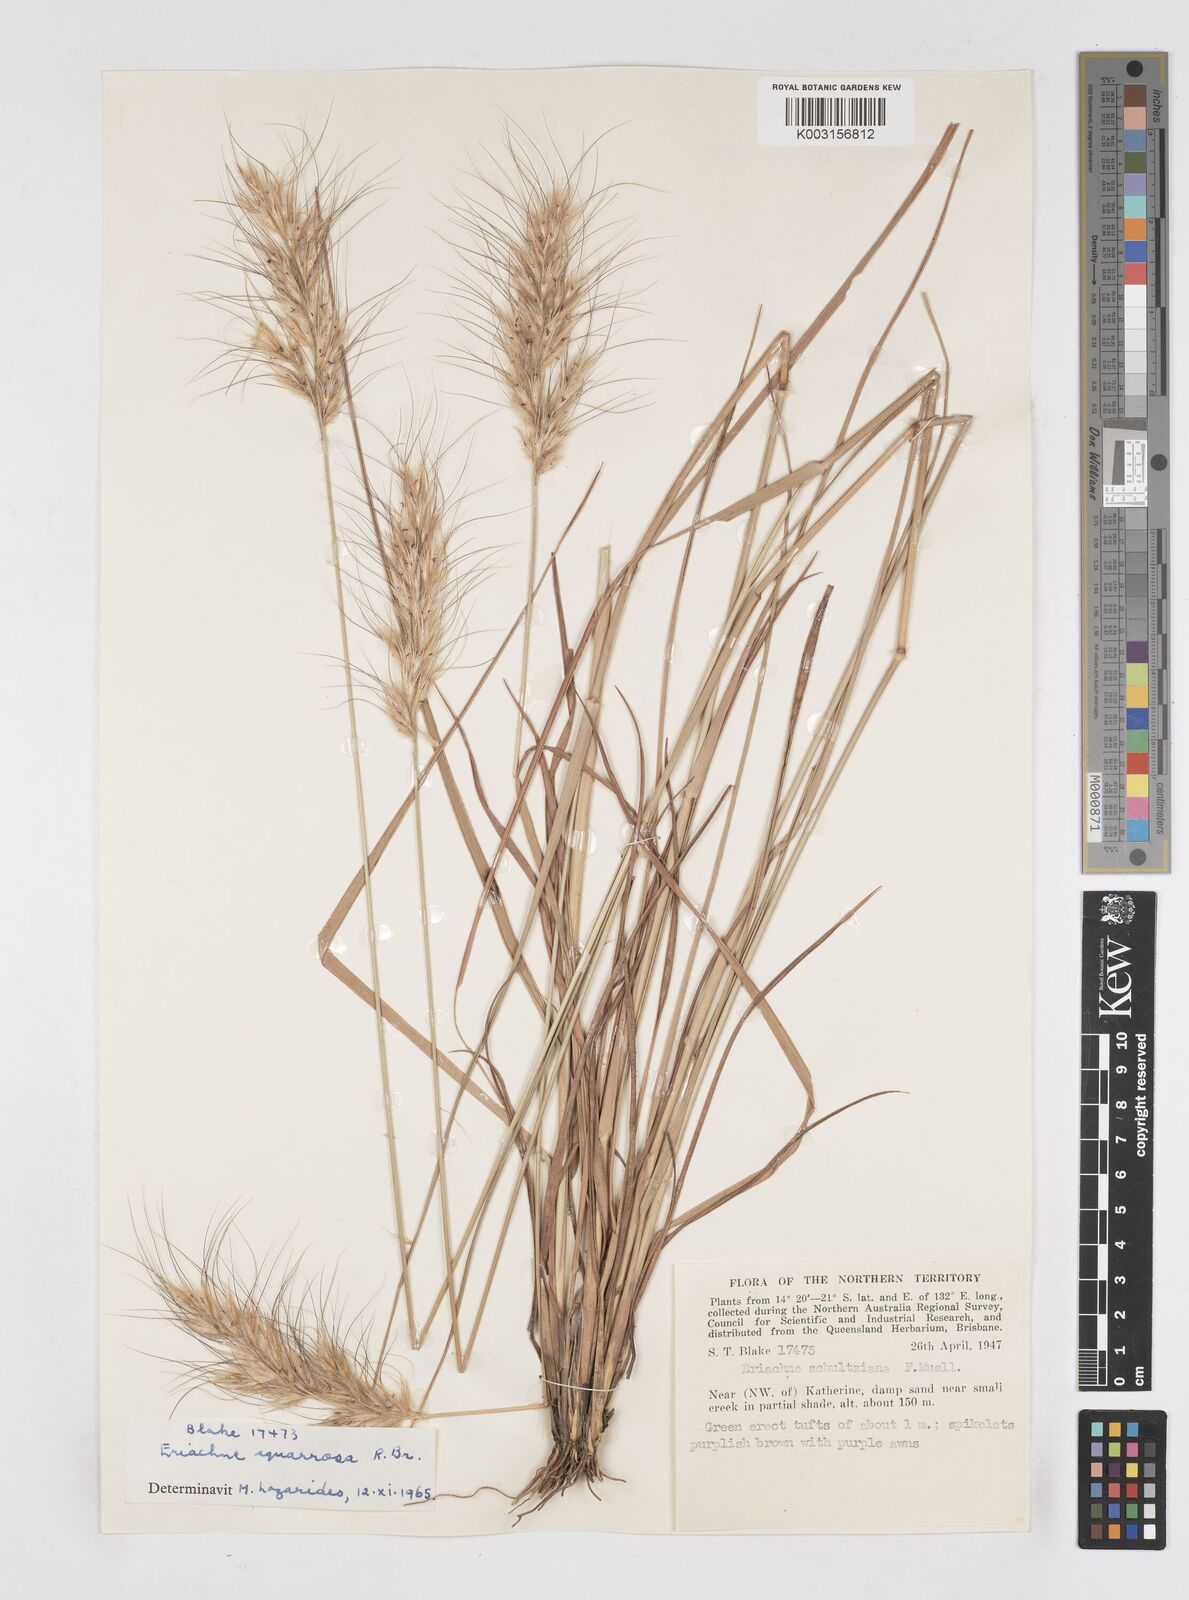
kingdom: Plantae
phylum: Tracheophyta
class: Liliopsida
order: Poales
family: Poaceae
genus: Eriachne
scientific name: Eriachne squarrosa
